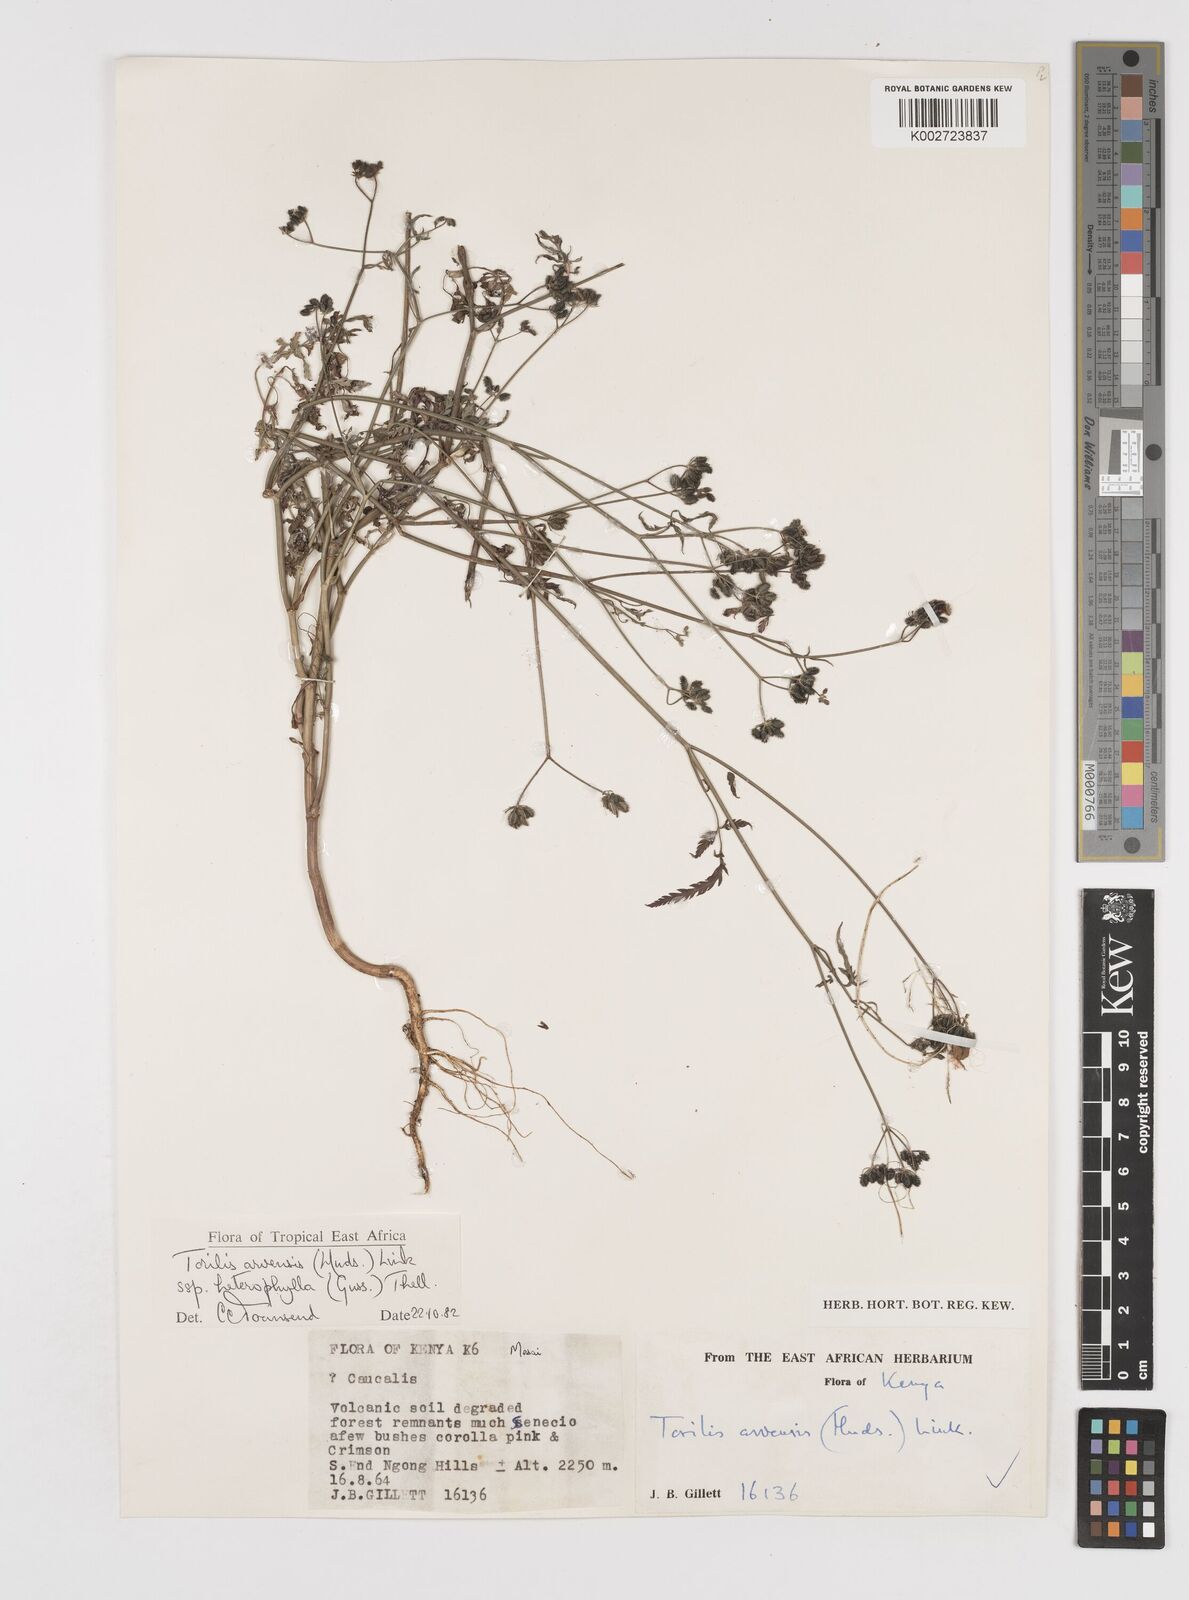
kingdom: Plantae
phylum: Tracheophyta
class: Magnoliopsida
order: Apiales
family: Apiaceae
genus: Torilis
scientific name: Torilis arvensis
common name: Spreading hedge-parsley
